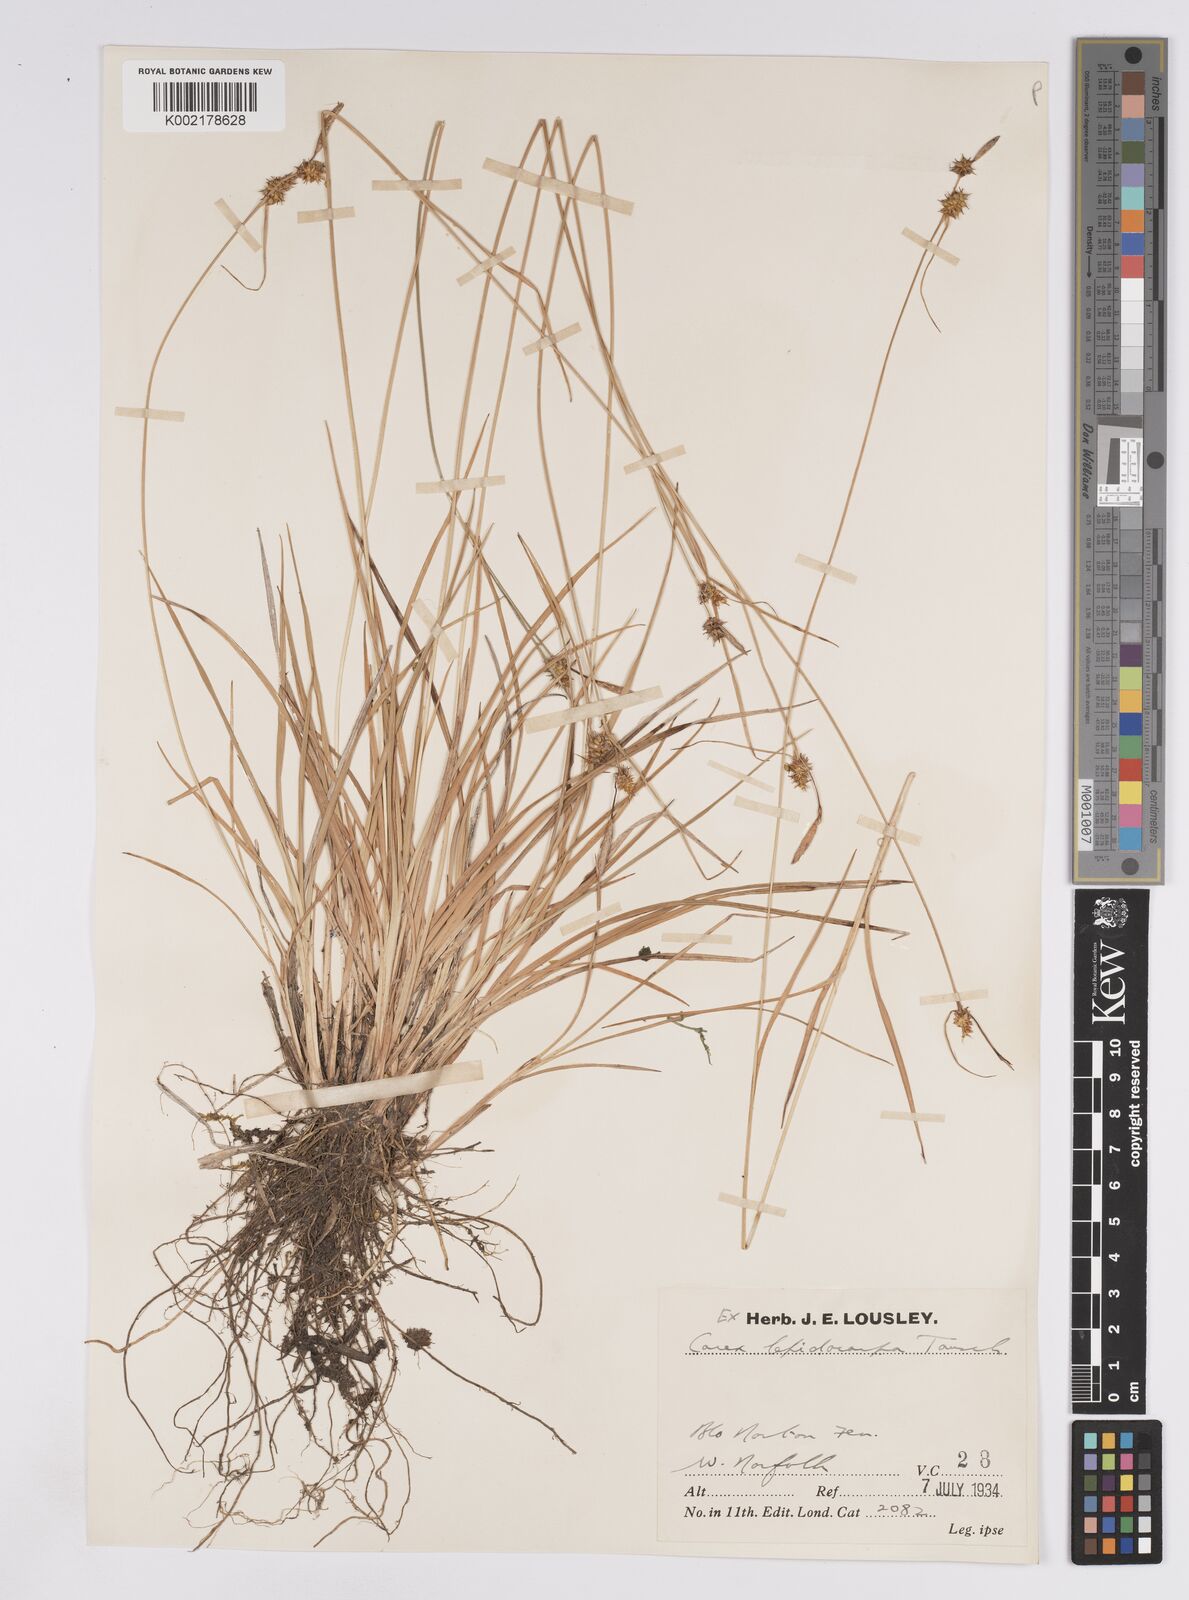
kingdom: Plantae
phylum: Tracheophyta
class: Liliopsida
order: Poales
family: Cyperaceae
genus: Carex
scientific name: Carex lepidocarpa
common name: Long-stalked yellow-sedge
